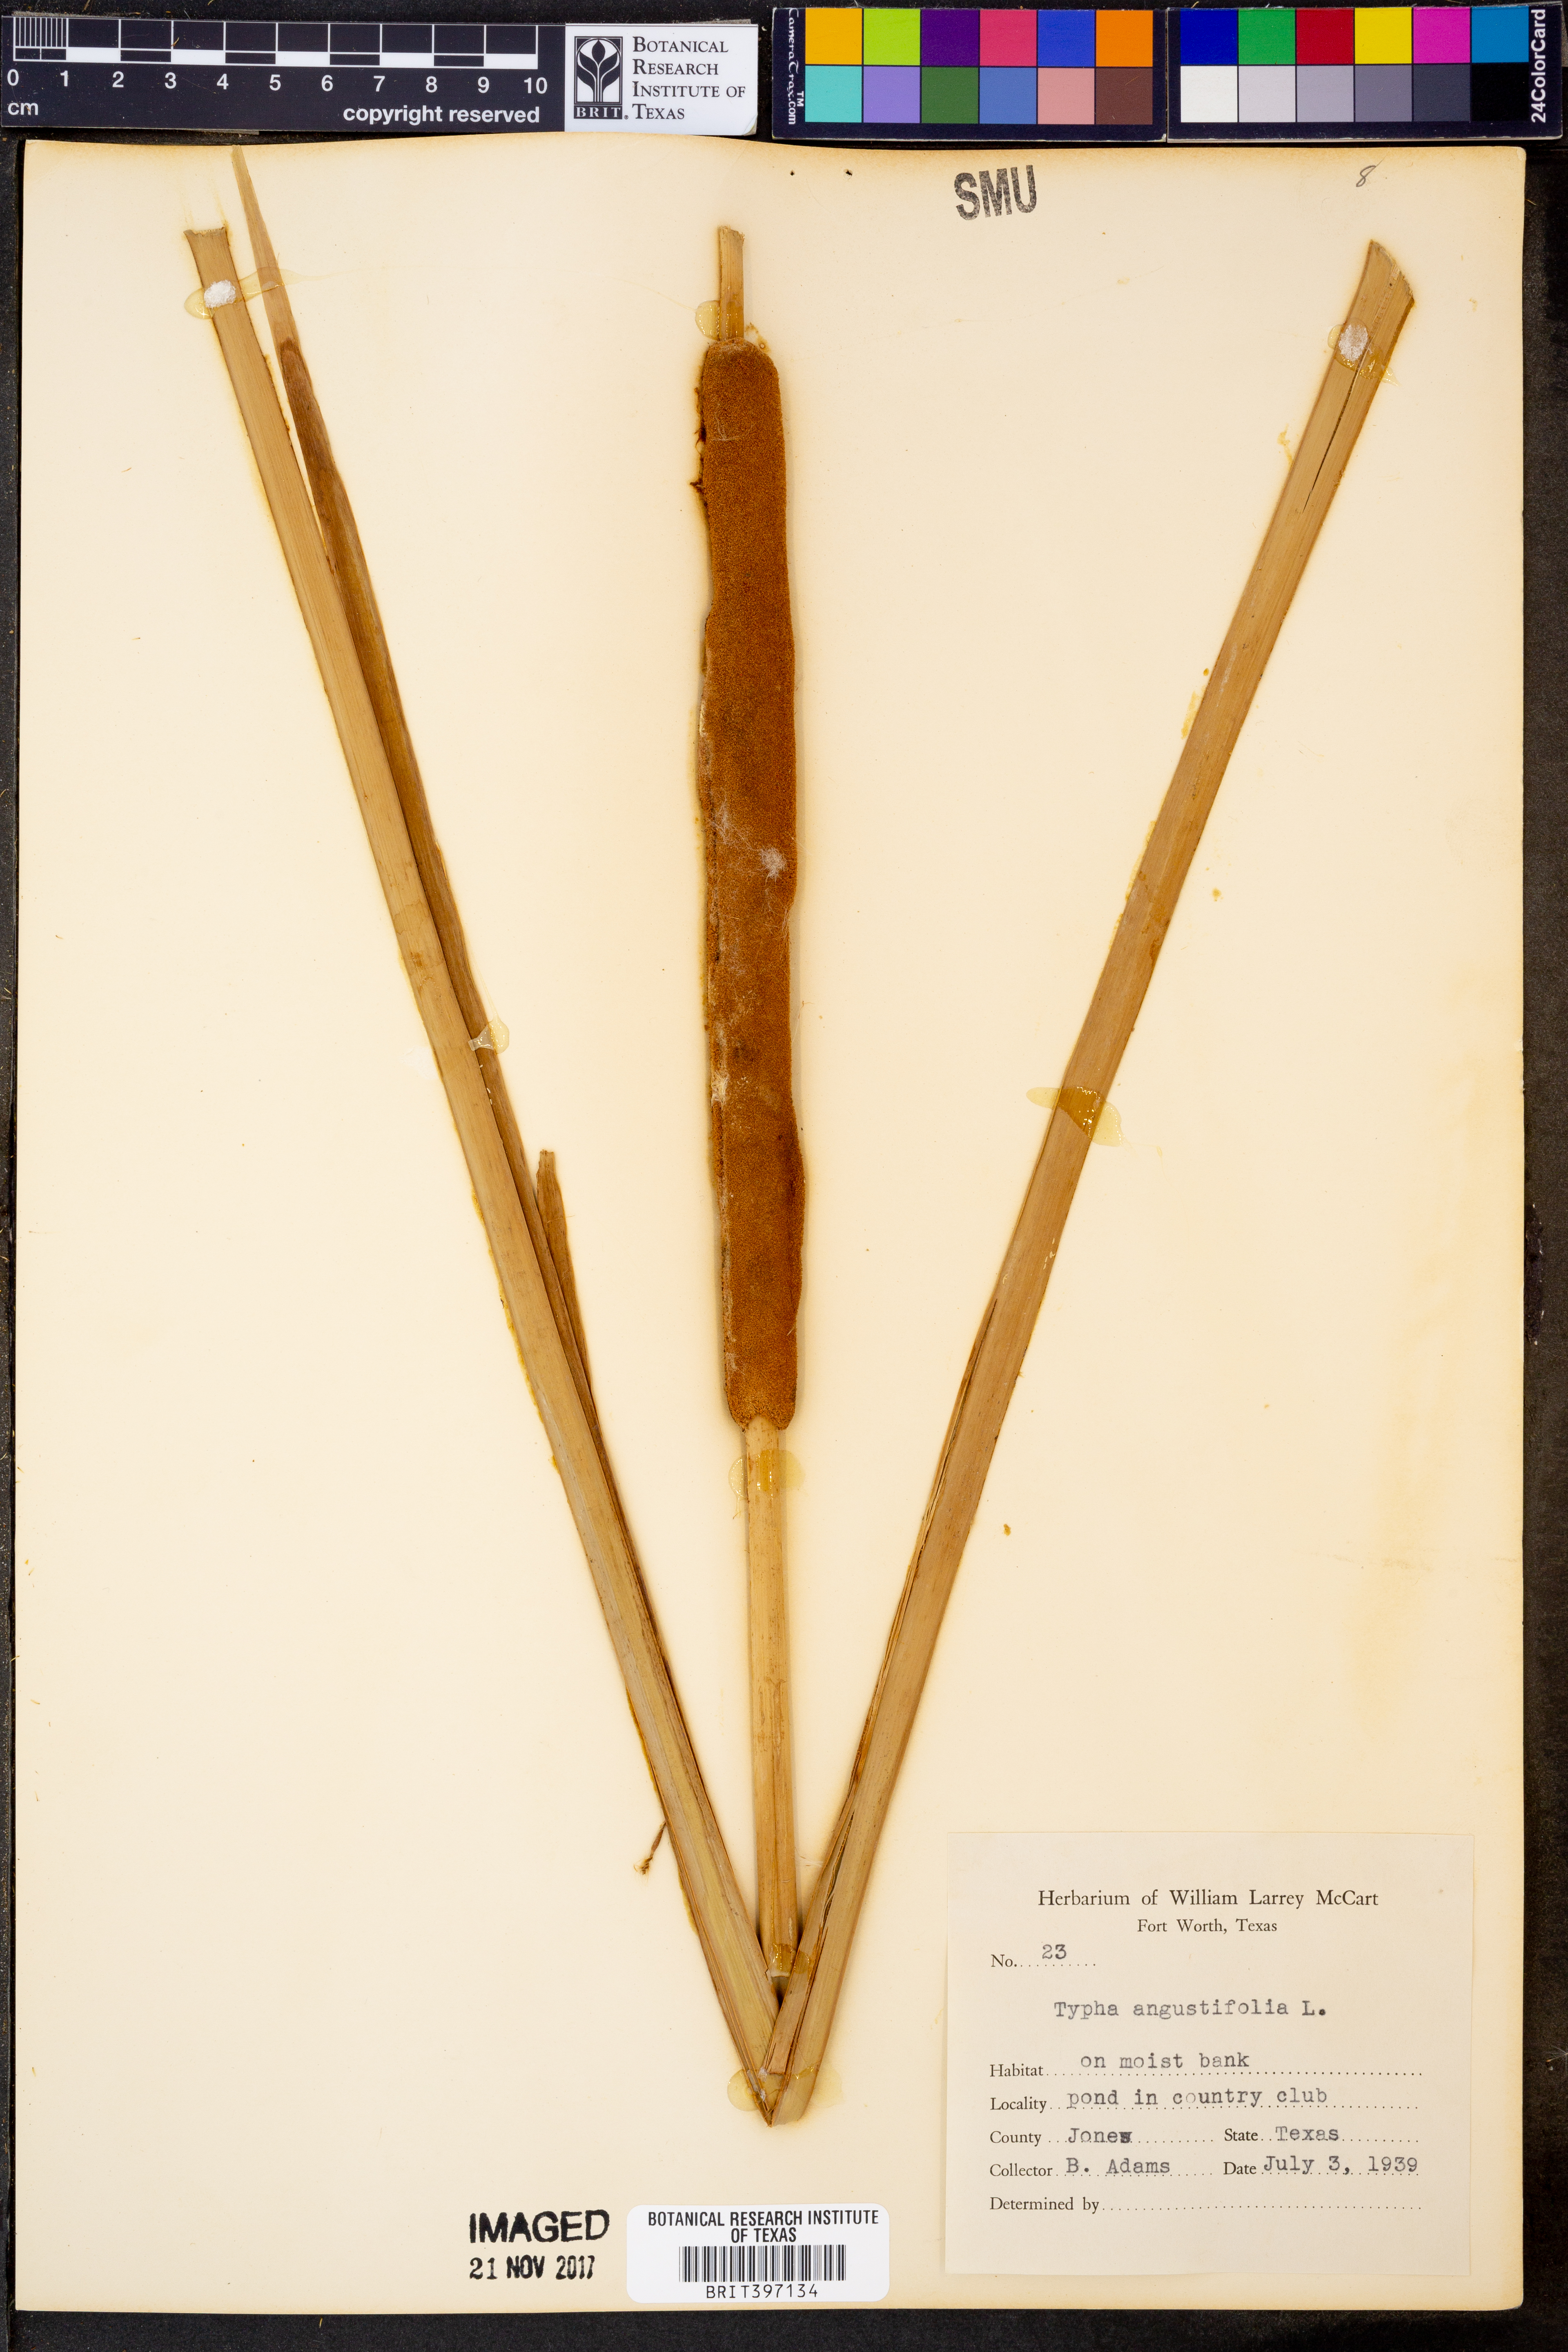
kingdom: Plantae
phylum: Tracheophyta
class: Liliopsida
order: Poales
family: Typhaceae
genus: Typha
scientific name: Typha angustifolia
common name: Lesser bulrush
